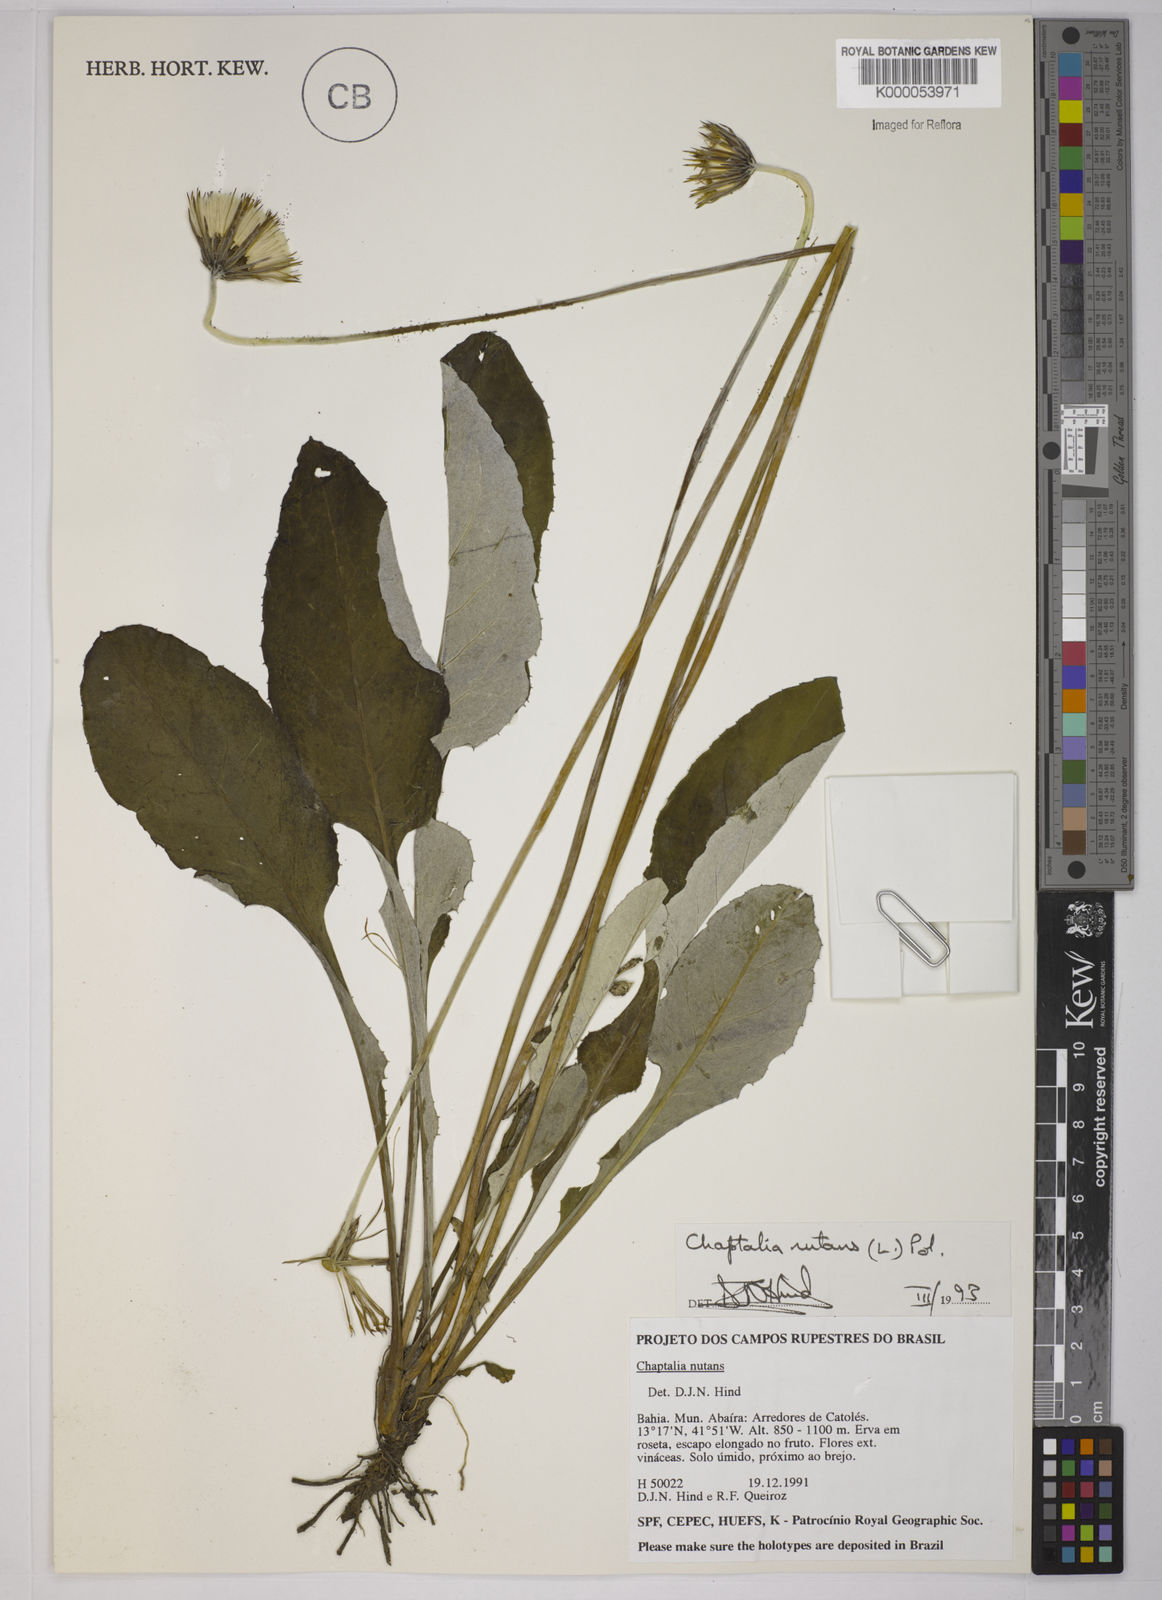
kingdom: Plantae
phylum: Tracheophyta
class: Magnoliopsida
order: Asterales
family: Asteraceae
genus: Chaptalia
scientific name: Chaptalia nutans
